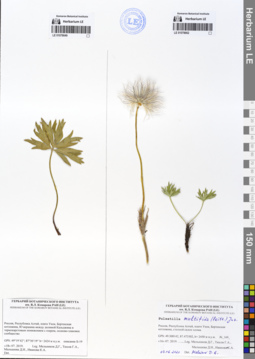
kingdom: Plantae
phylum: Tracheophyta
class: Magnoliopsida
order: Ranunculales
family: Ranunculaceae
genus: Pulsatilla
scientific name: Pulsatilla patens
